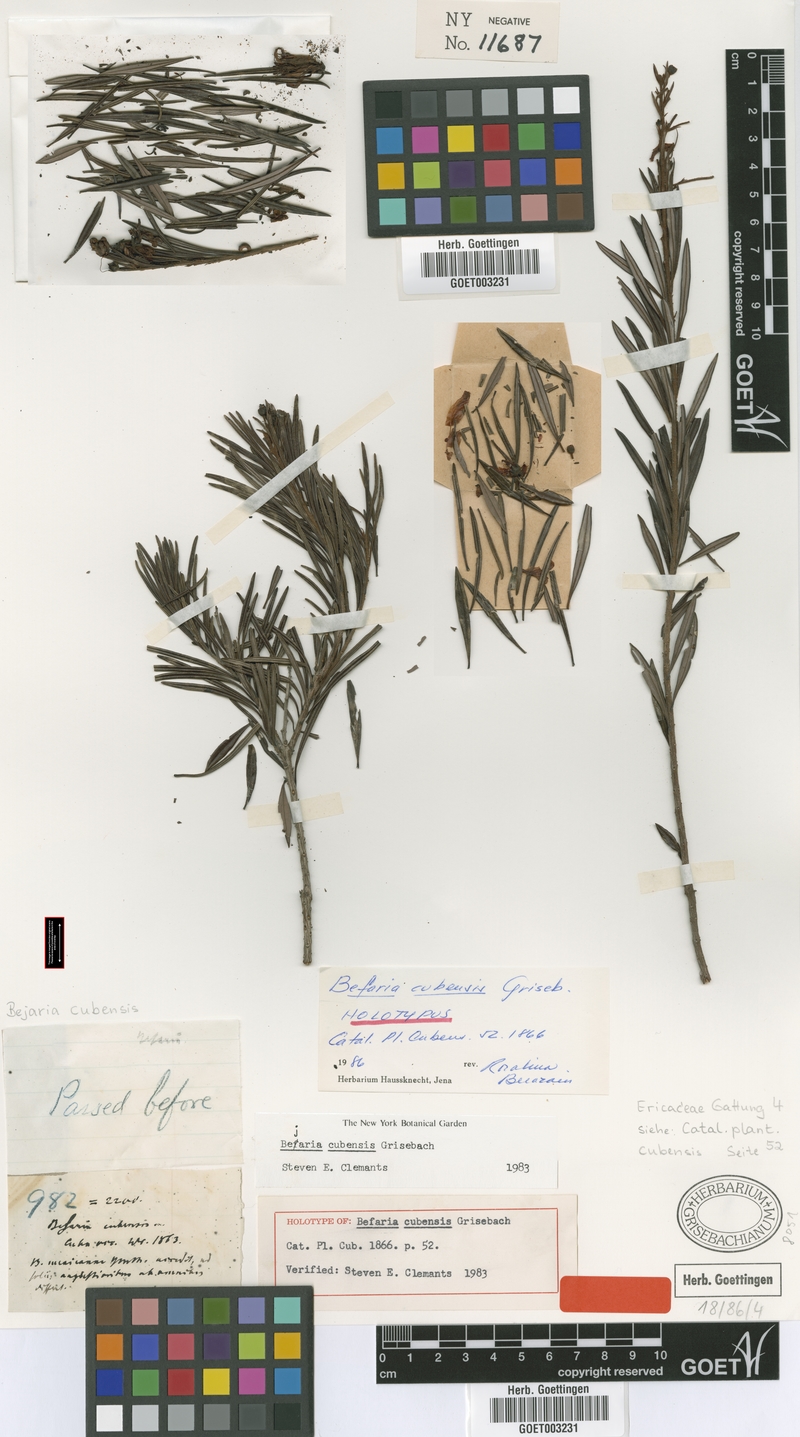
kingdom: Plantae
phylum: Tracheophyta
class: Magnoliopsida
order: Ericales
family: Ericaceae
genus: Bejaria
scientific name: Bejaria cubensis
